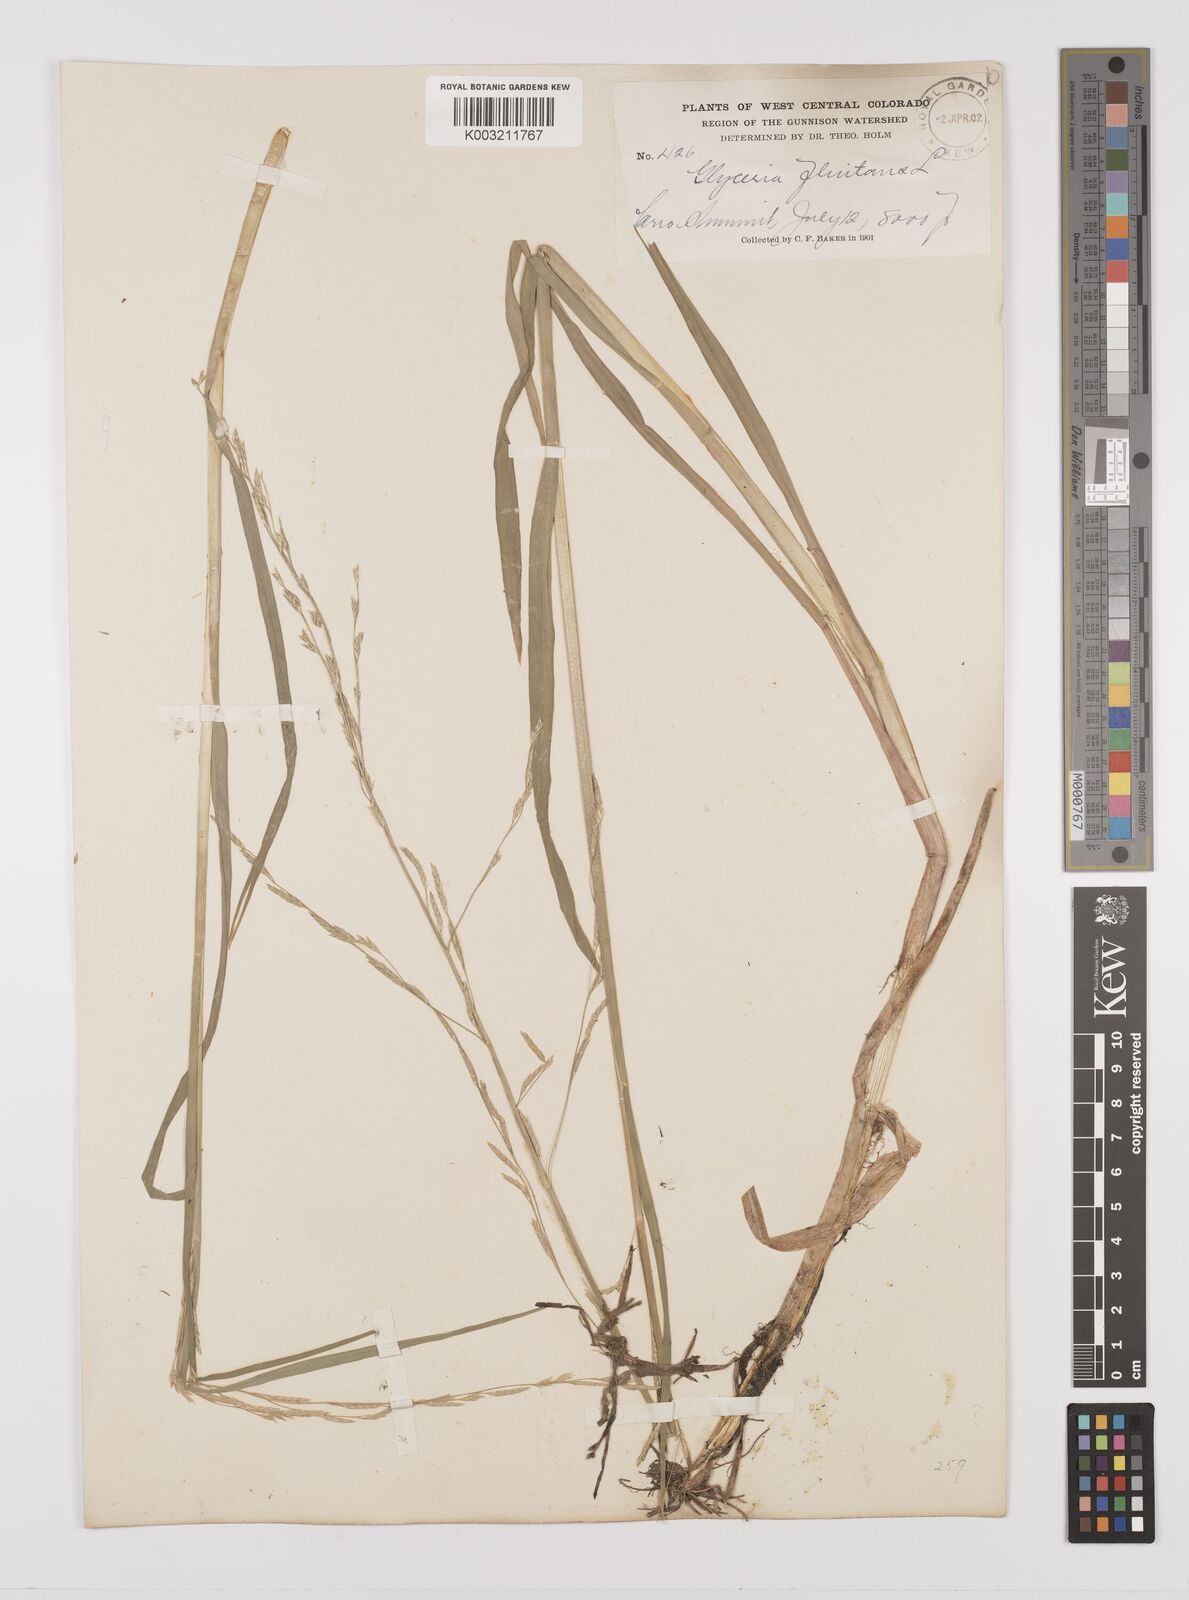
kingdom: Plantae
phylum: Tracheophyta
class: Liliopsida
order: Poales
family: Poaceae
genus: Glyceria
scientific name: Glyceria borealis
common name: Boreal glyceria
